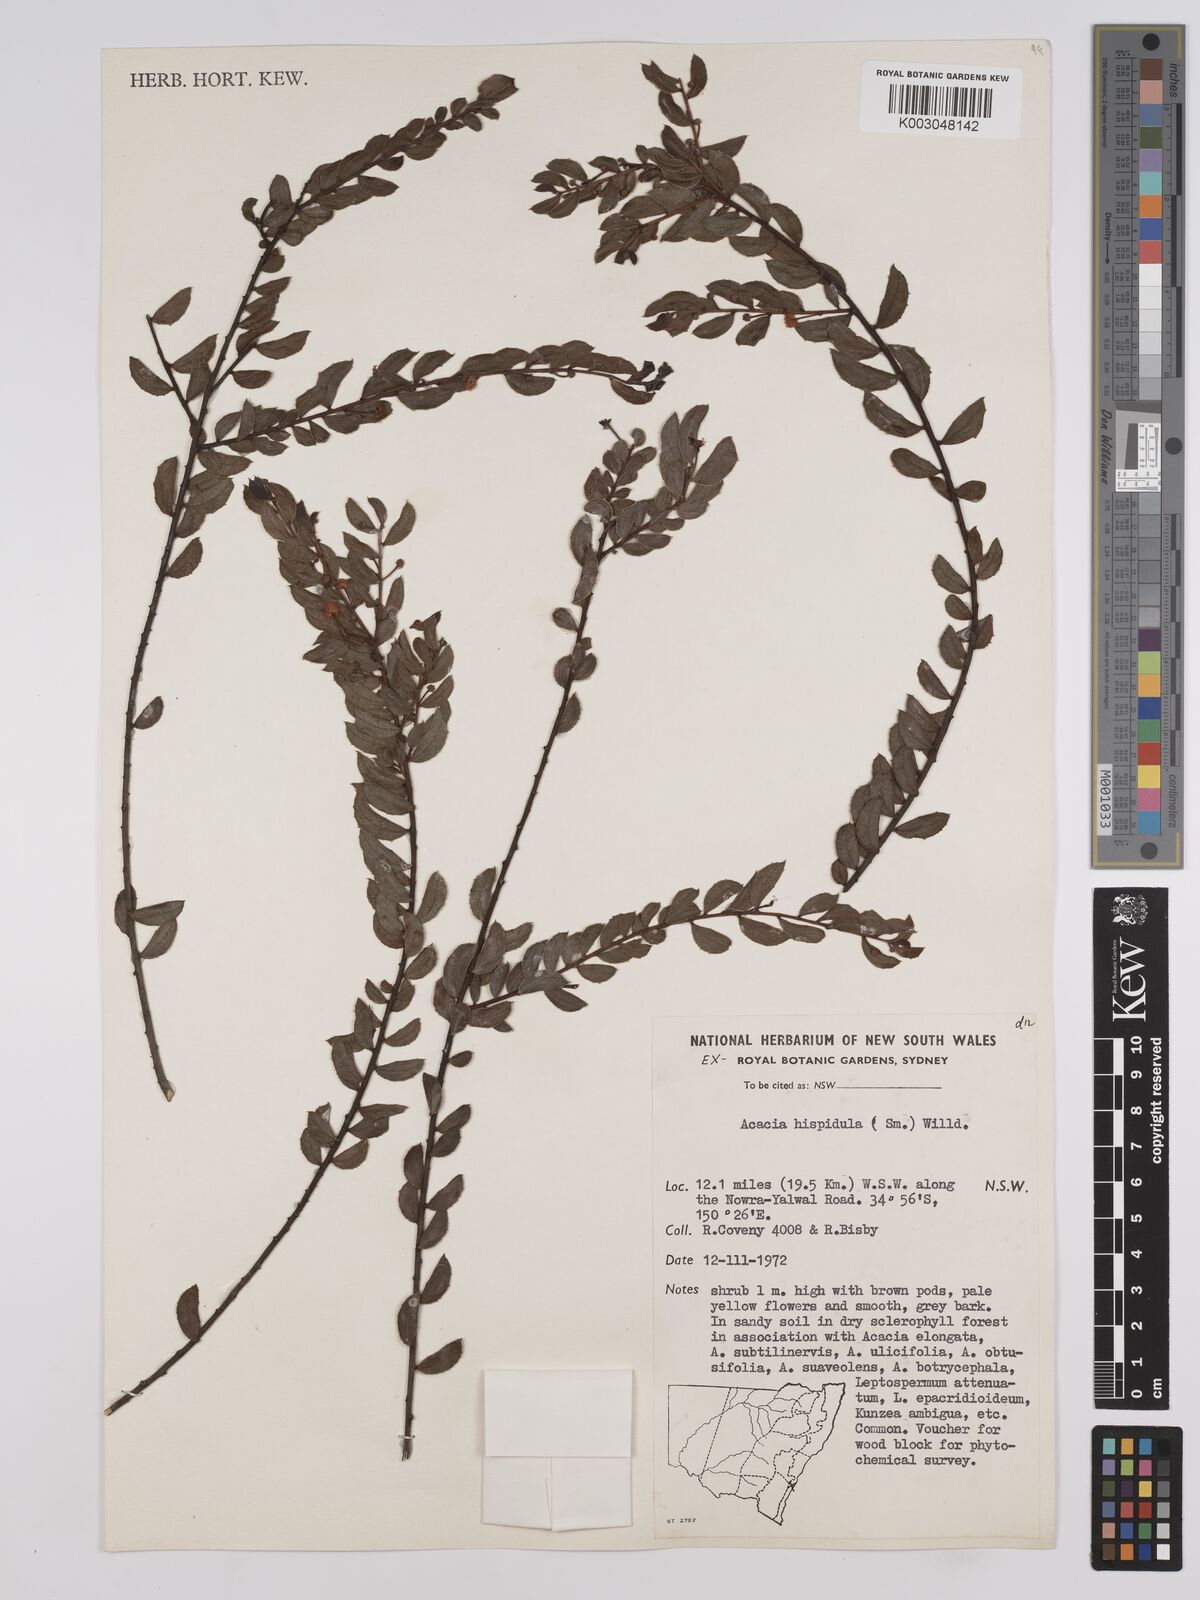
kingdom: Plantae
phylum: Tracheophyta
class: Magnoliopsida
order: Fabales
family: Fabaceae
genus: Acacia
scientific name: Acacia hispidula
